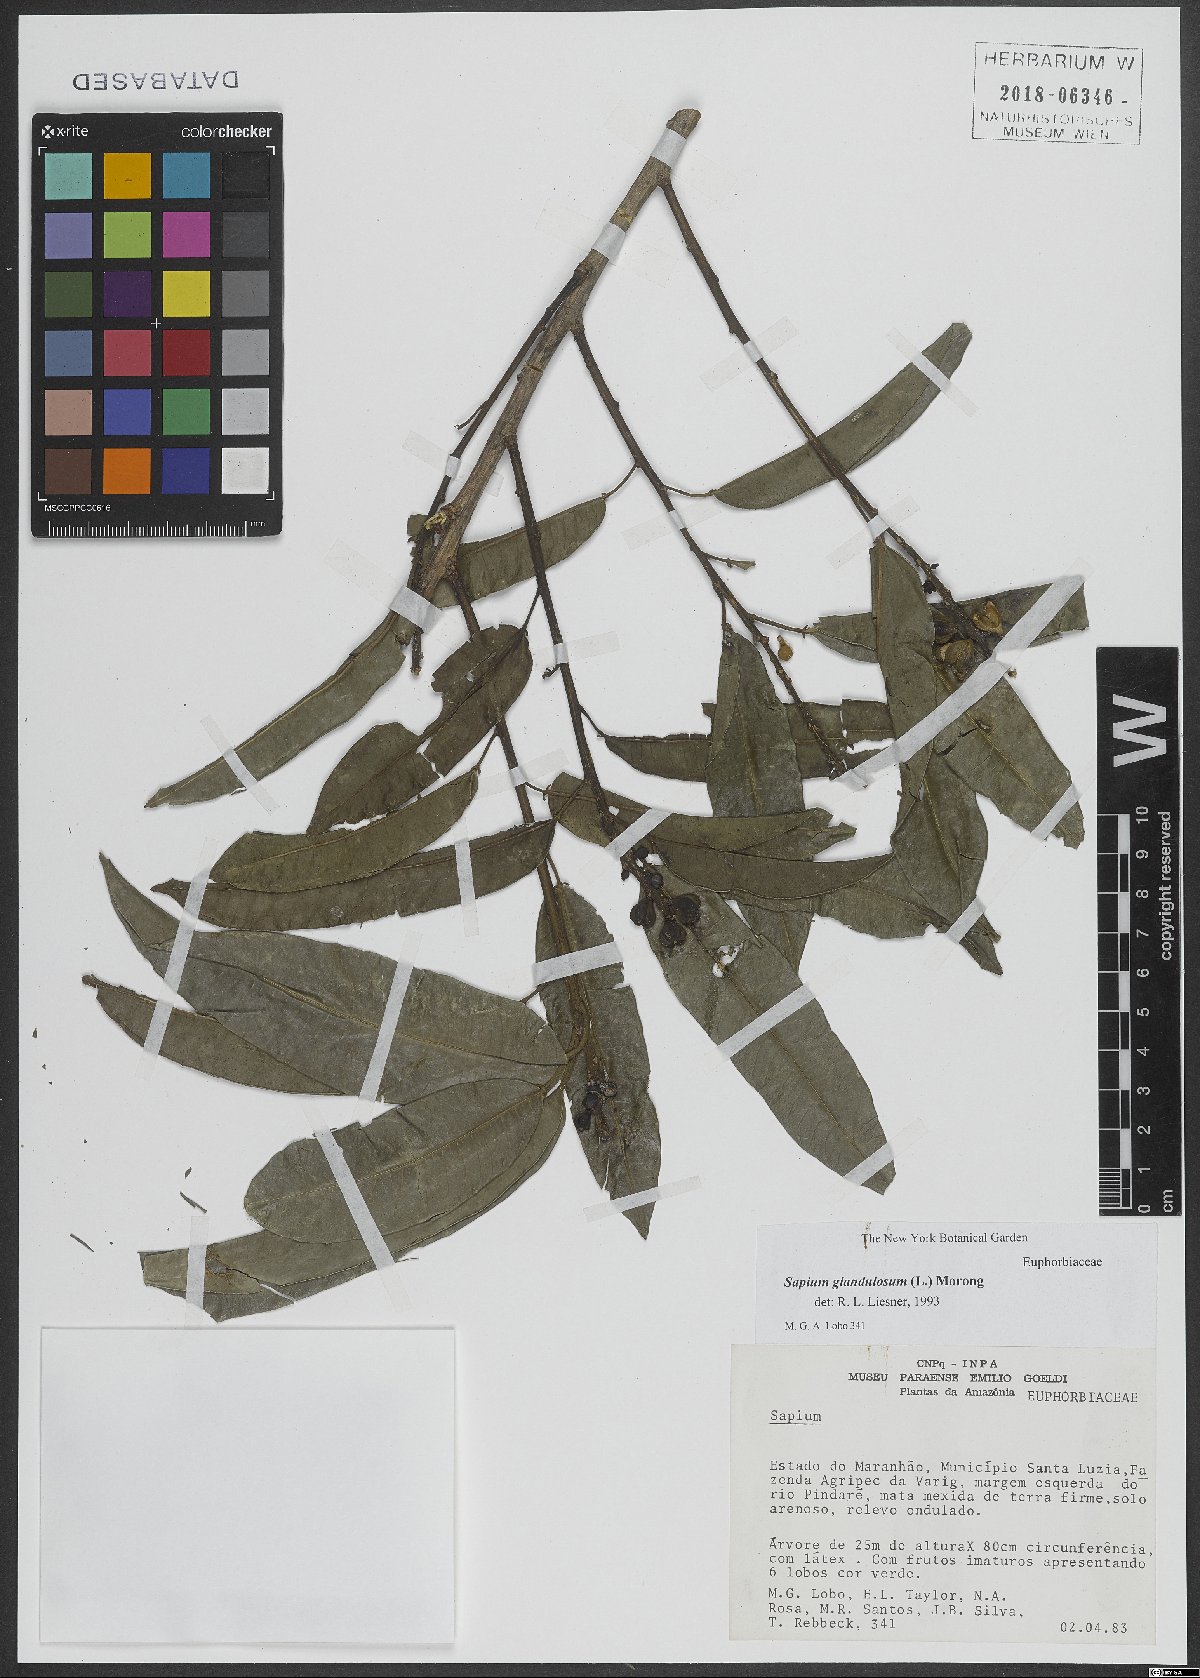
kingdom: Plantae
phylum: Tracheophyta
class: Magnoliopsida
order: Malpighiales
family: Euphorbiaceae
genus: Sapium
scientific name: Sapium glandulosum
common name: Milktree
